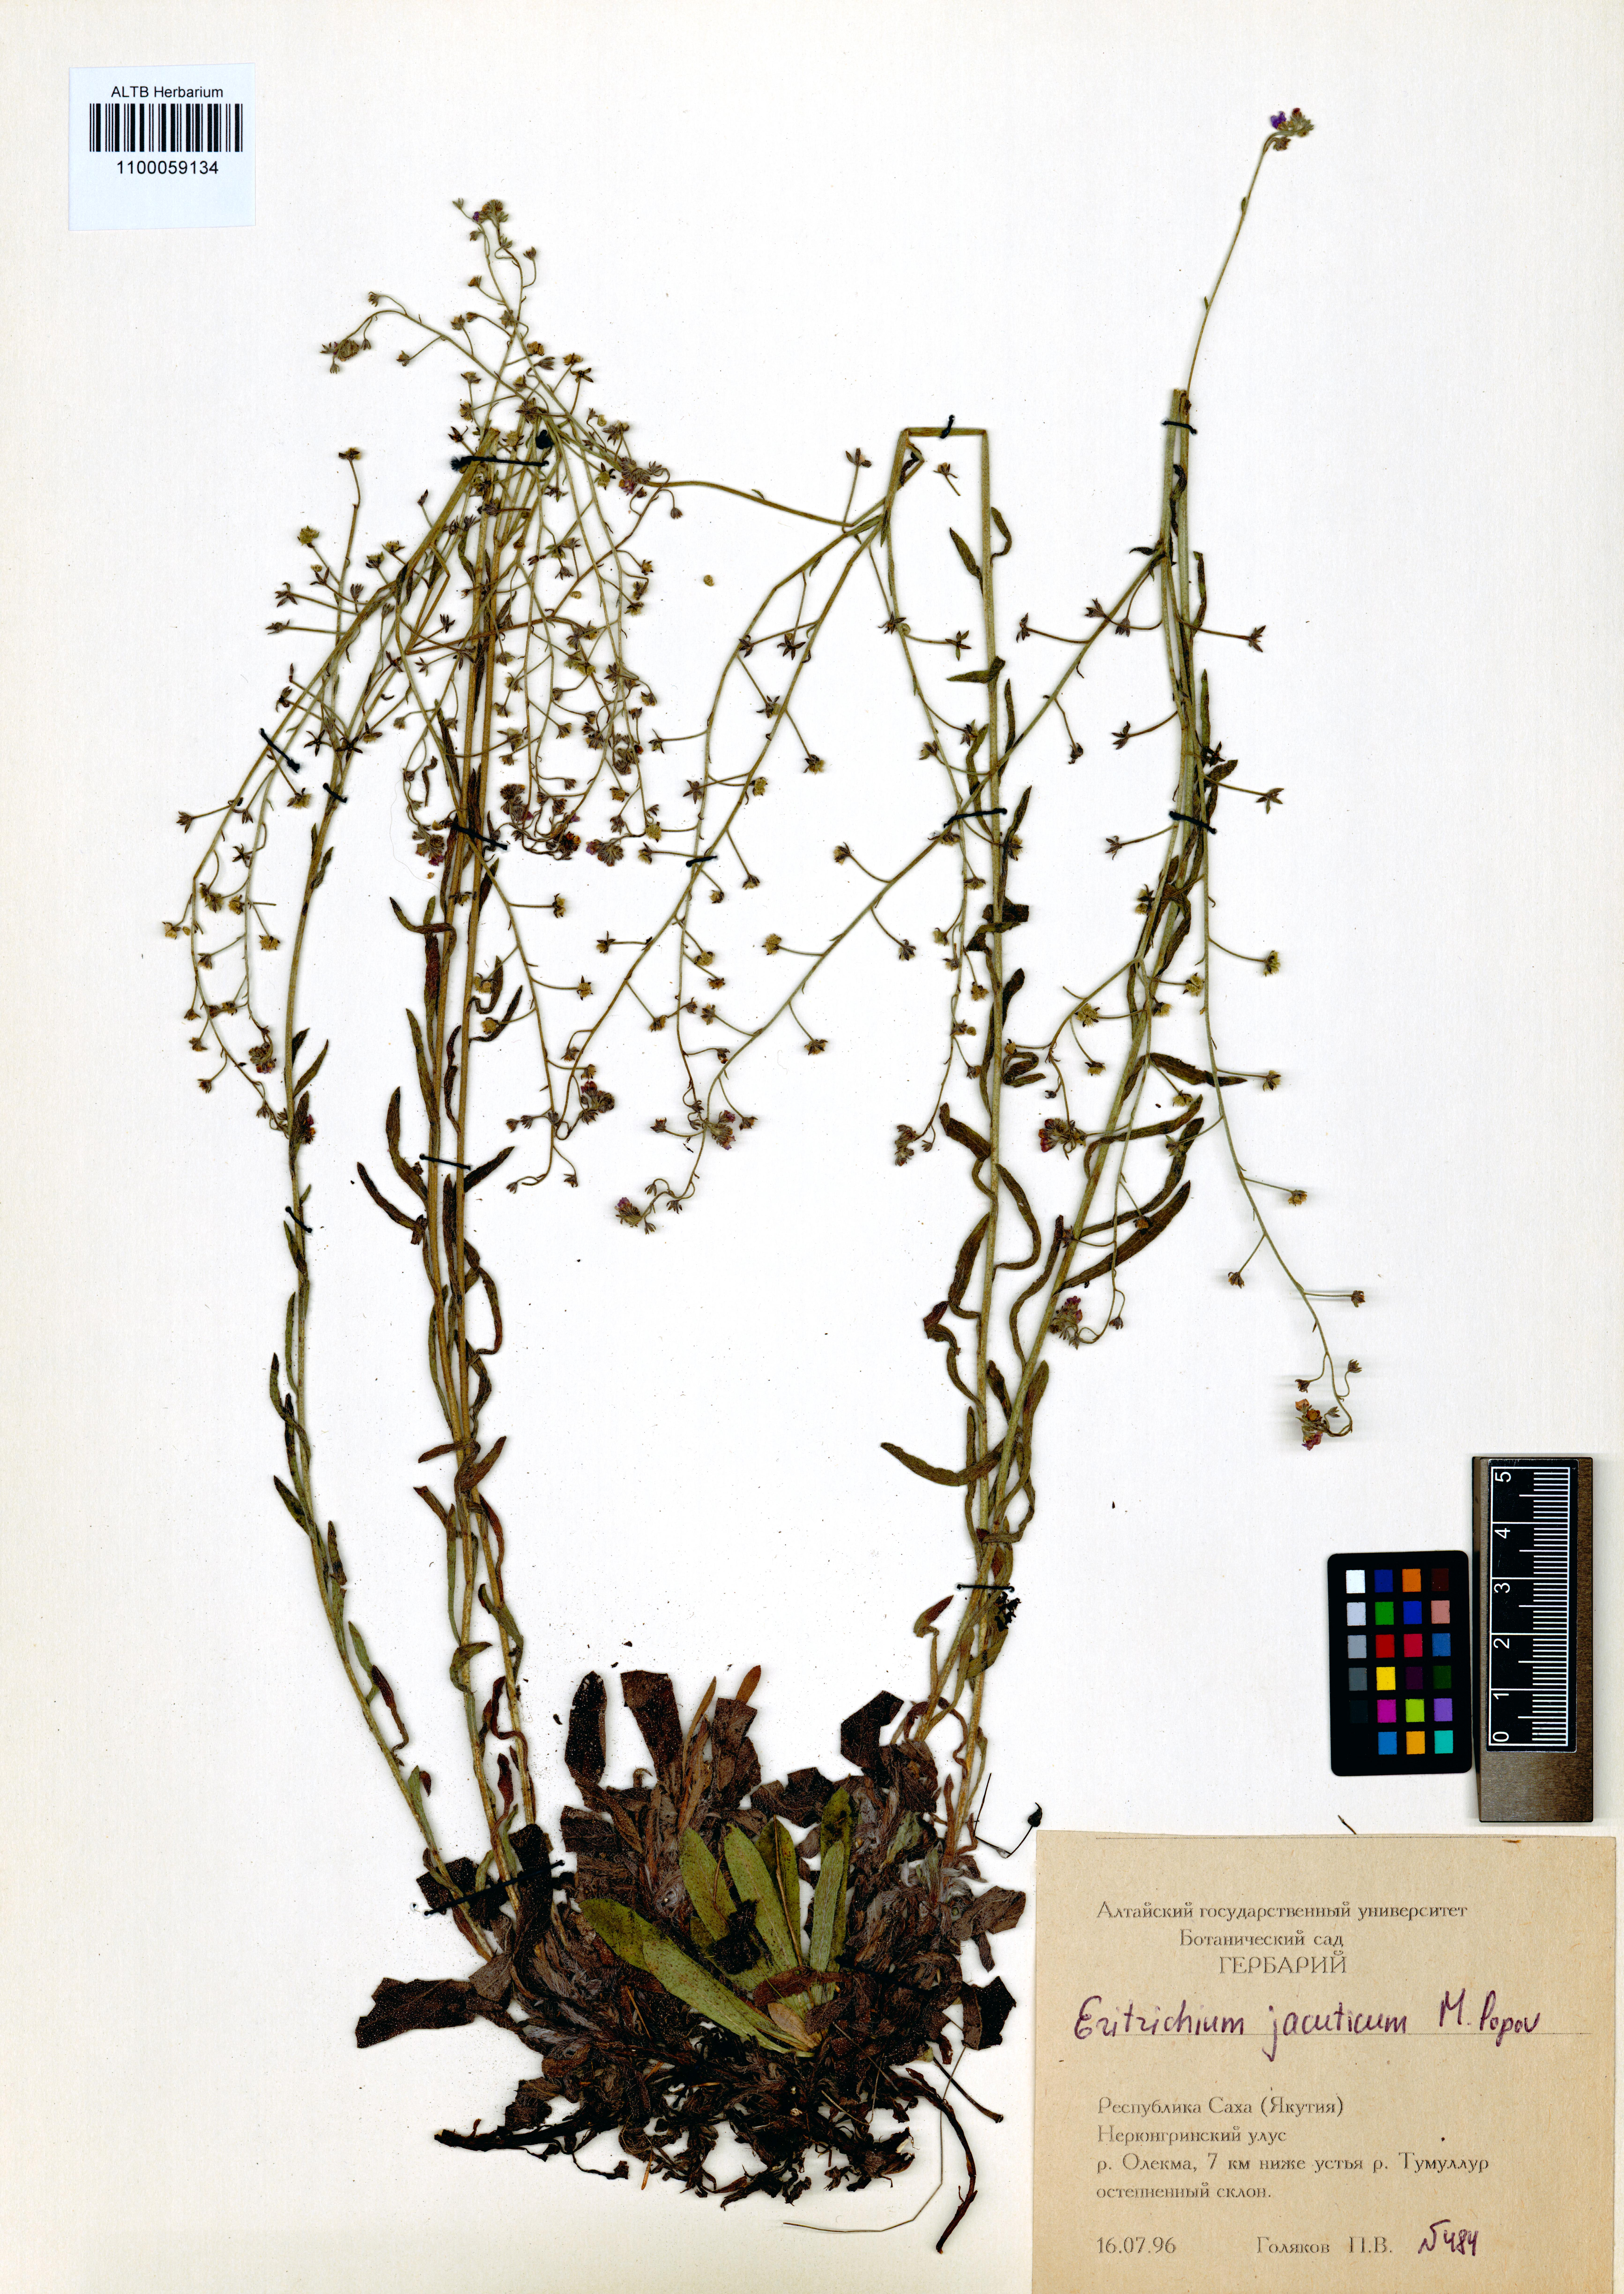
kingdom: Plantae
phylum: Tracheophyta
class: Magnoliopsida
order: Boraginales
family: Boraginaceae
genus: Eritrichium
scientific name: Eritrichium jacuticum
